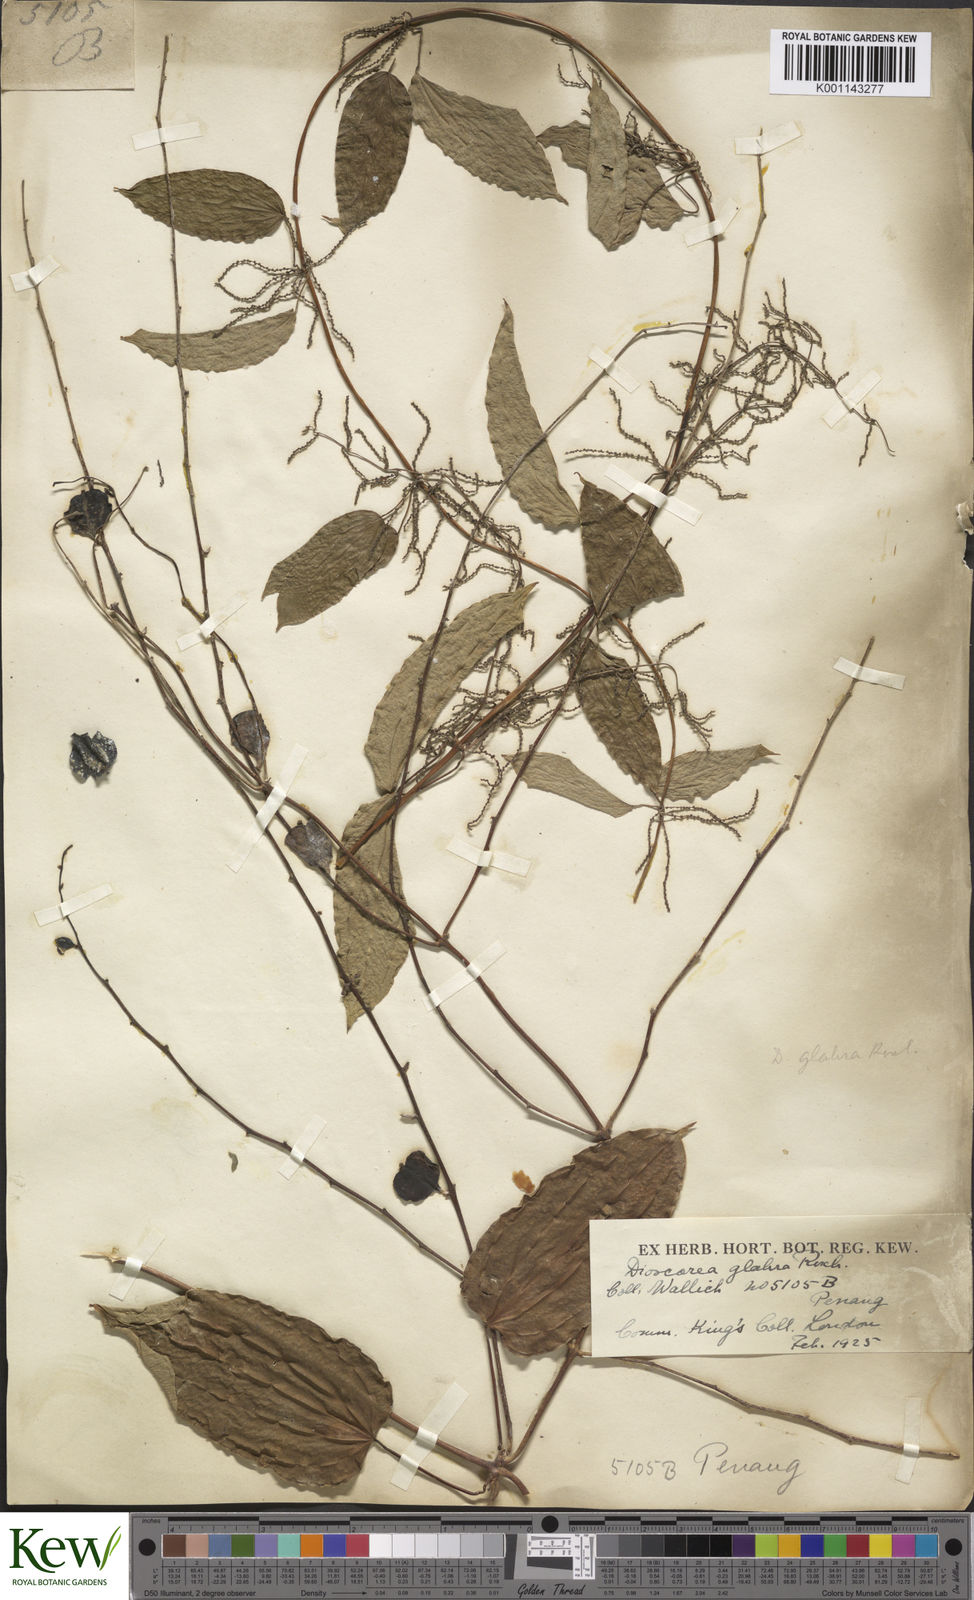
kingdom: Plantae
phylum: Tracheophyta
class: Liliopsida
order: Dioscoreales
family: Dioscoreaceae
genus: Dioscorea
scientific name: Dioscorea glabra
